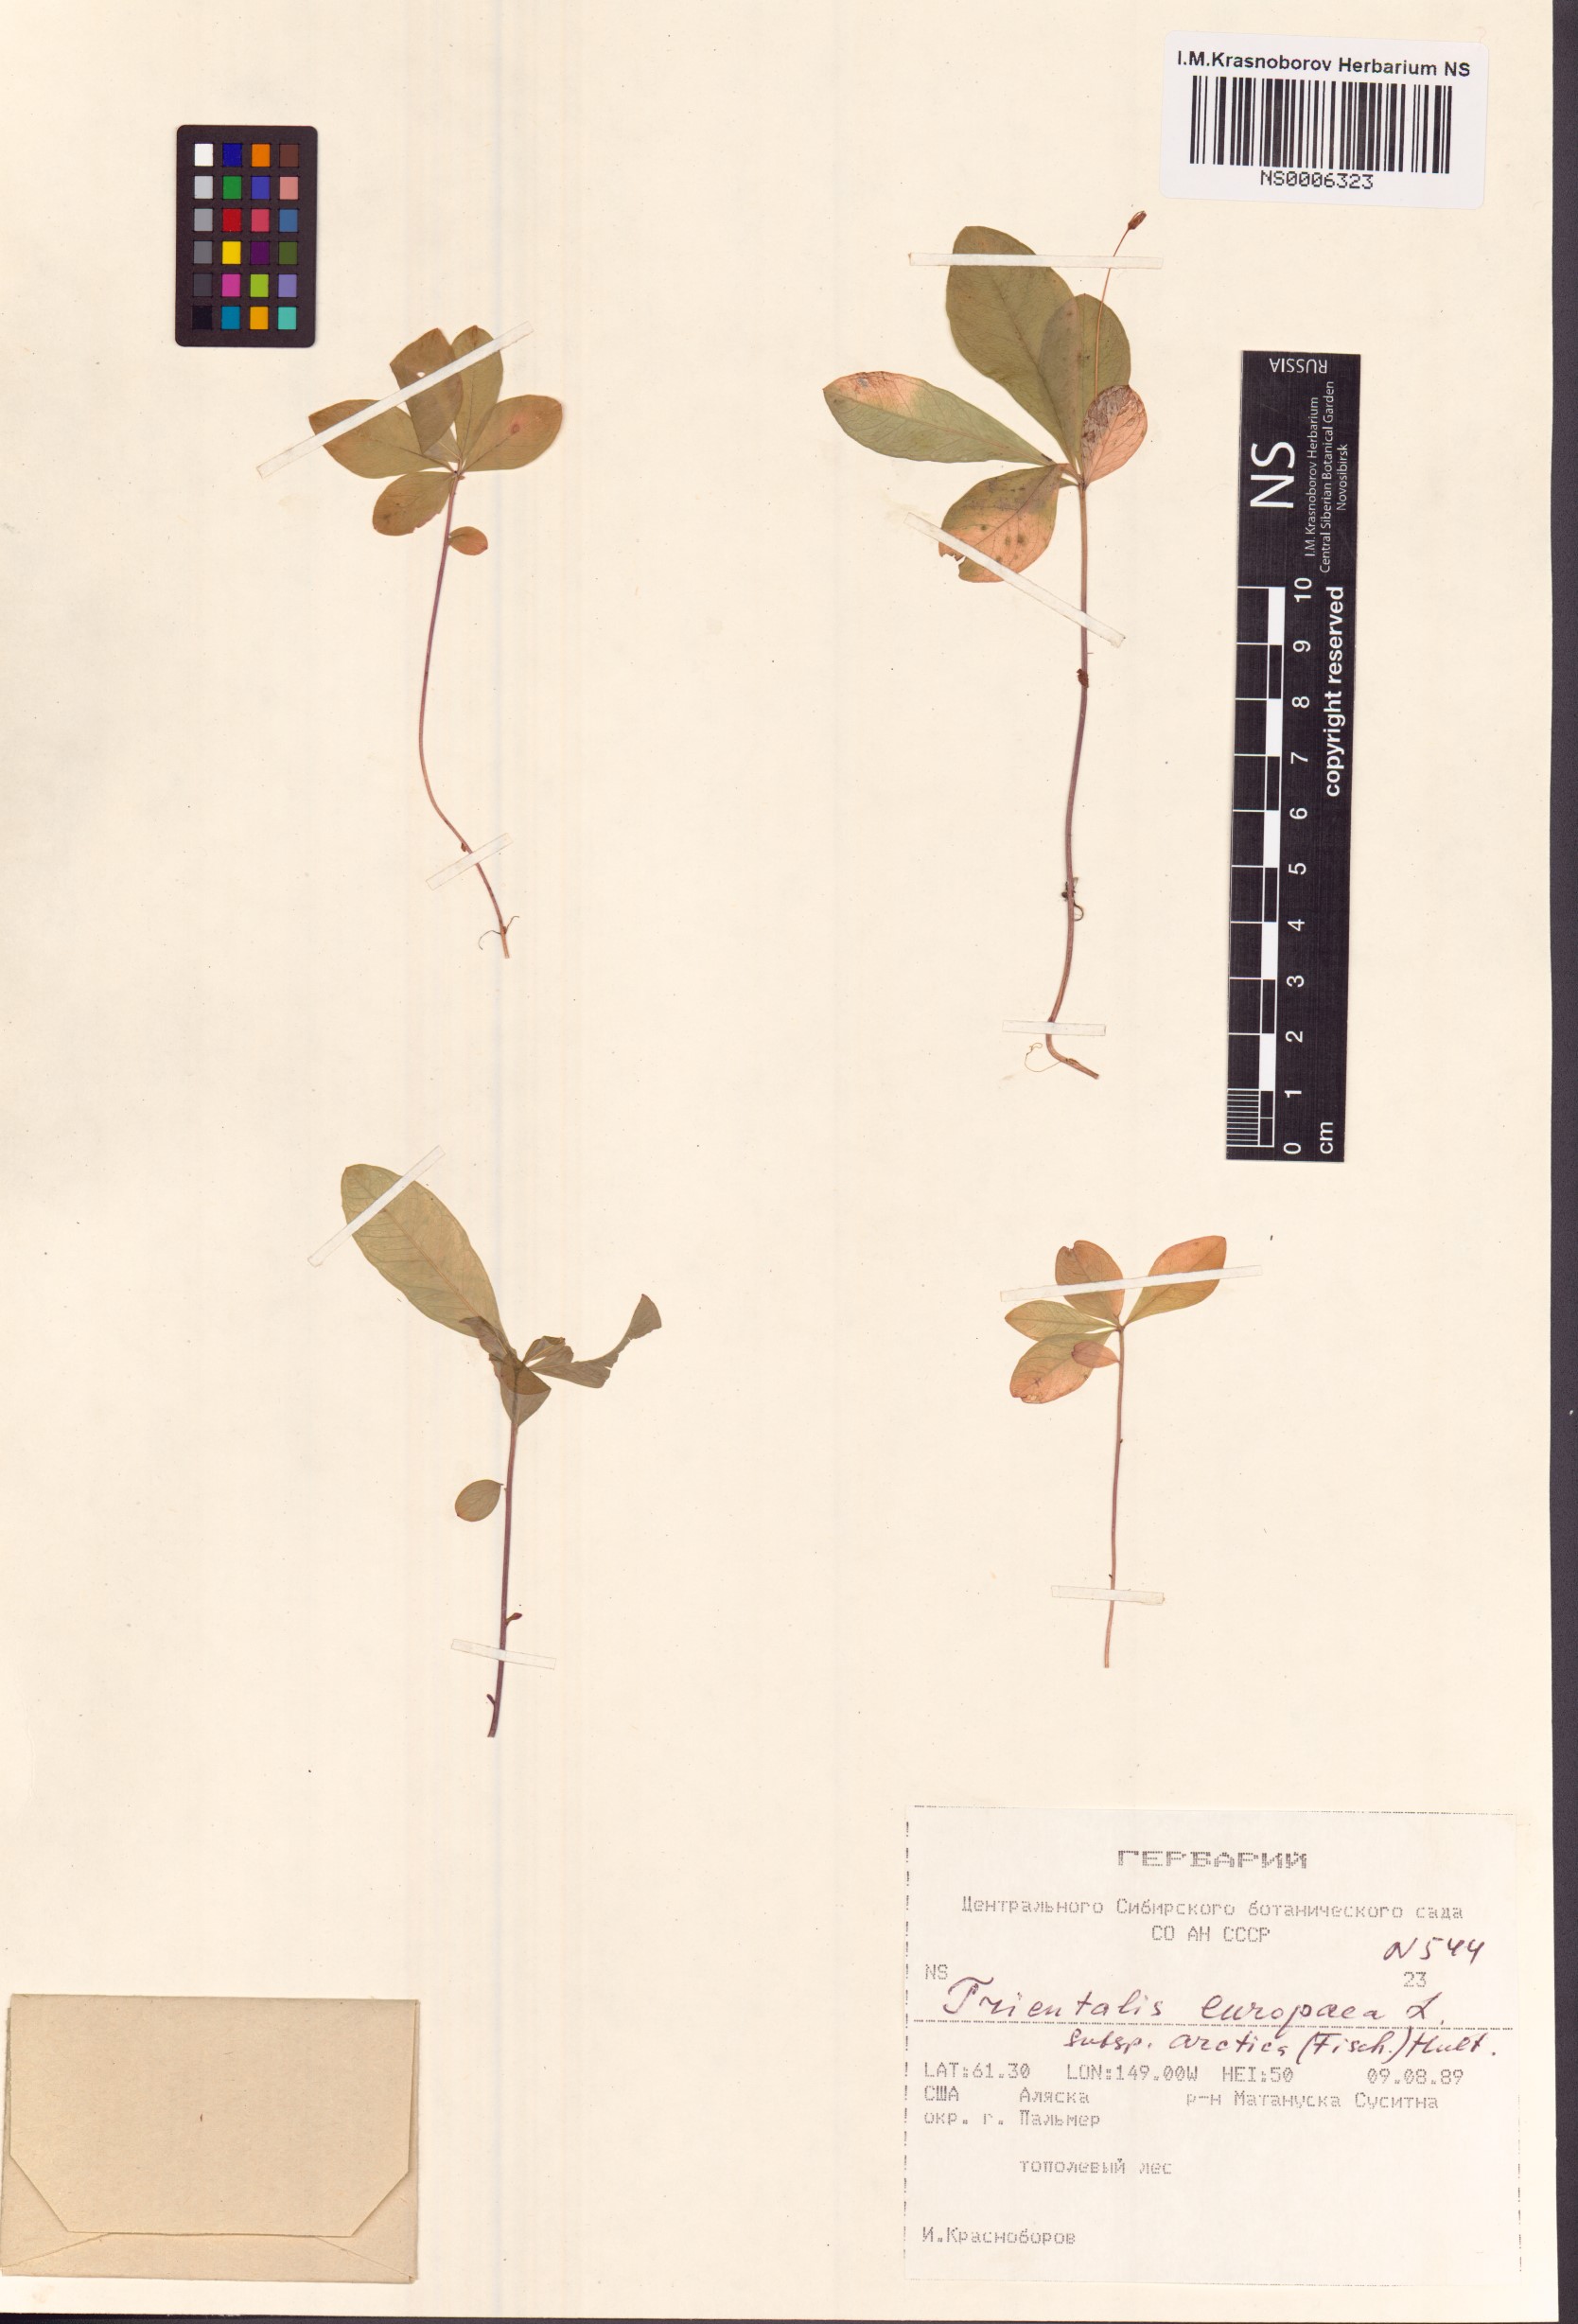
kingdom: Plantae
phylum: Tracheophyta
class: Magnoliopsida
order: Ericales
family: Primulaceae
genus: Lysimachia
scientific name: Lysimachia europaea
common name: Arctic starflower
